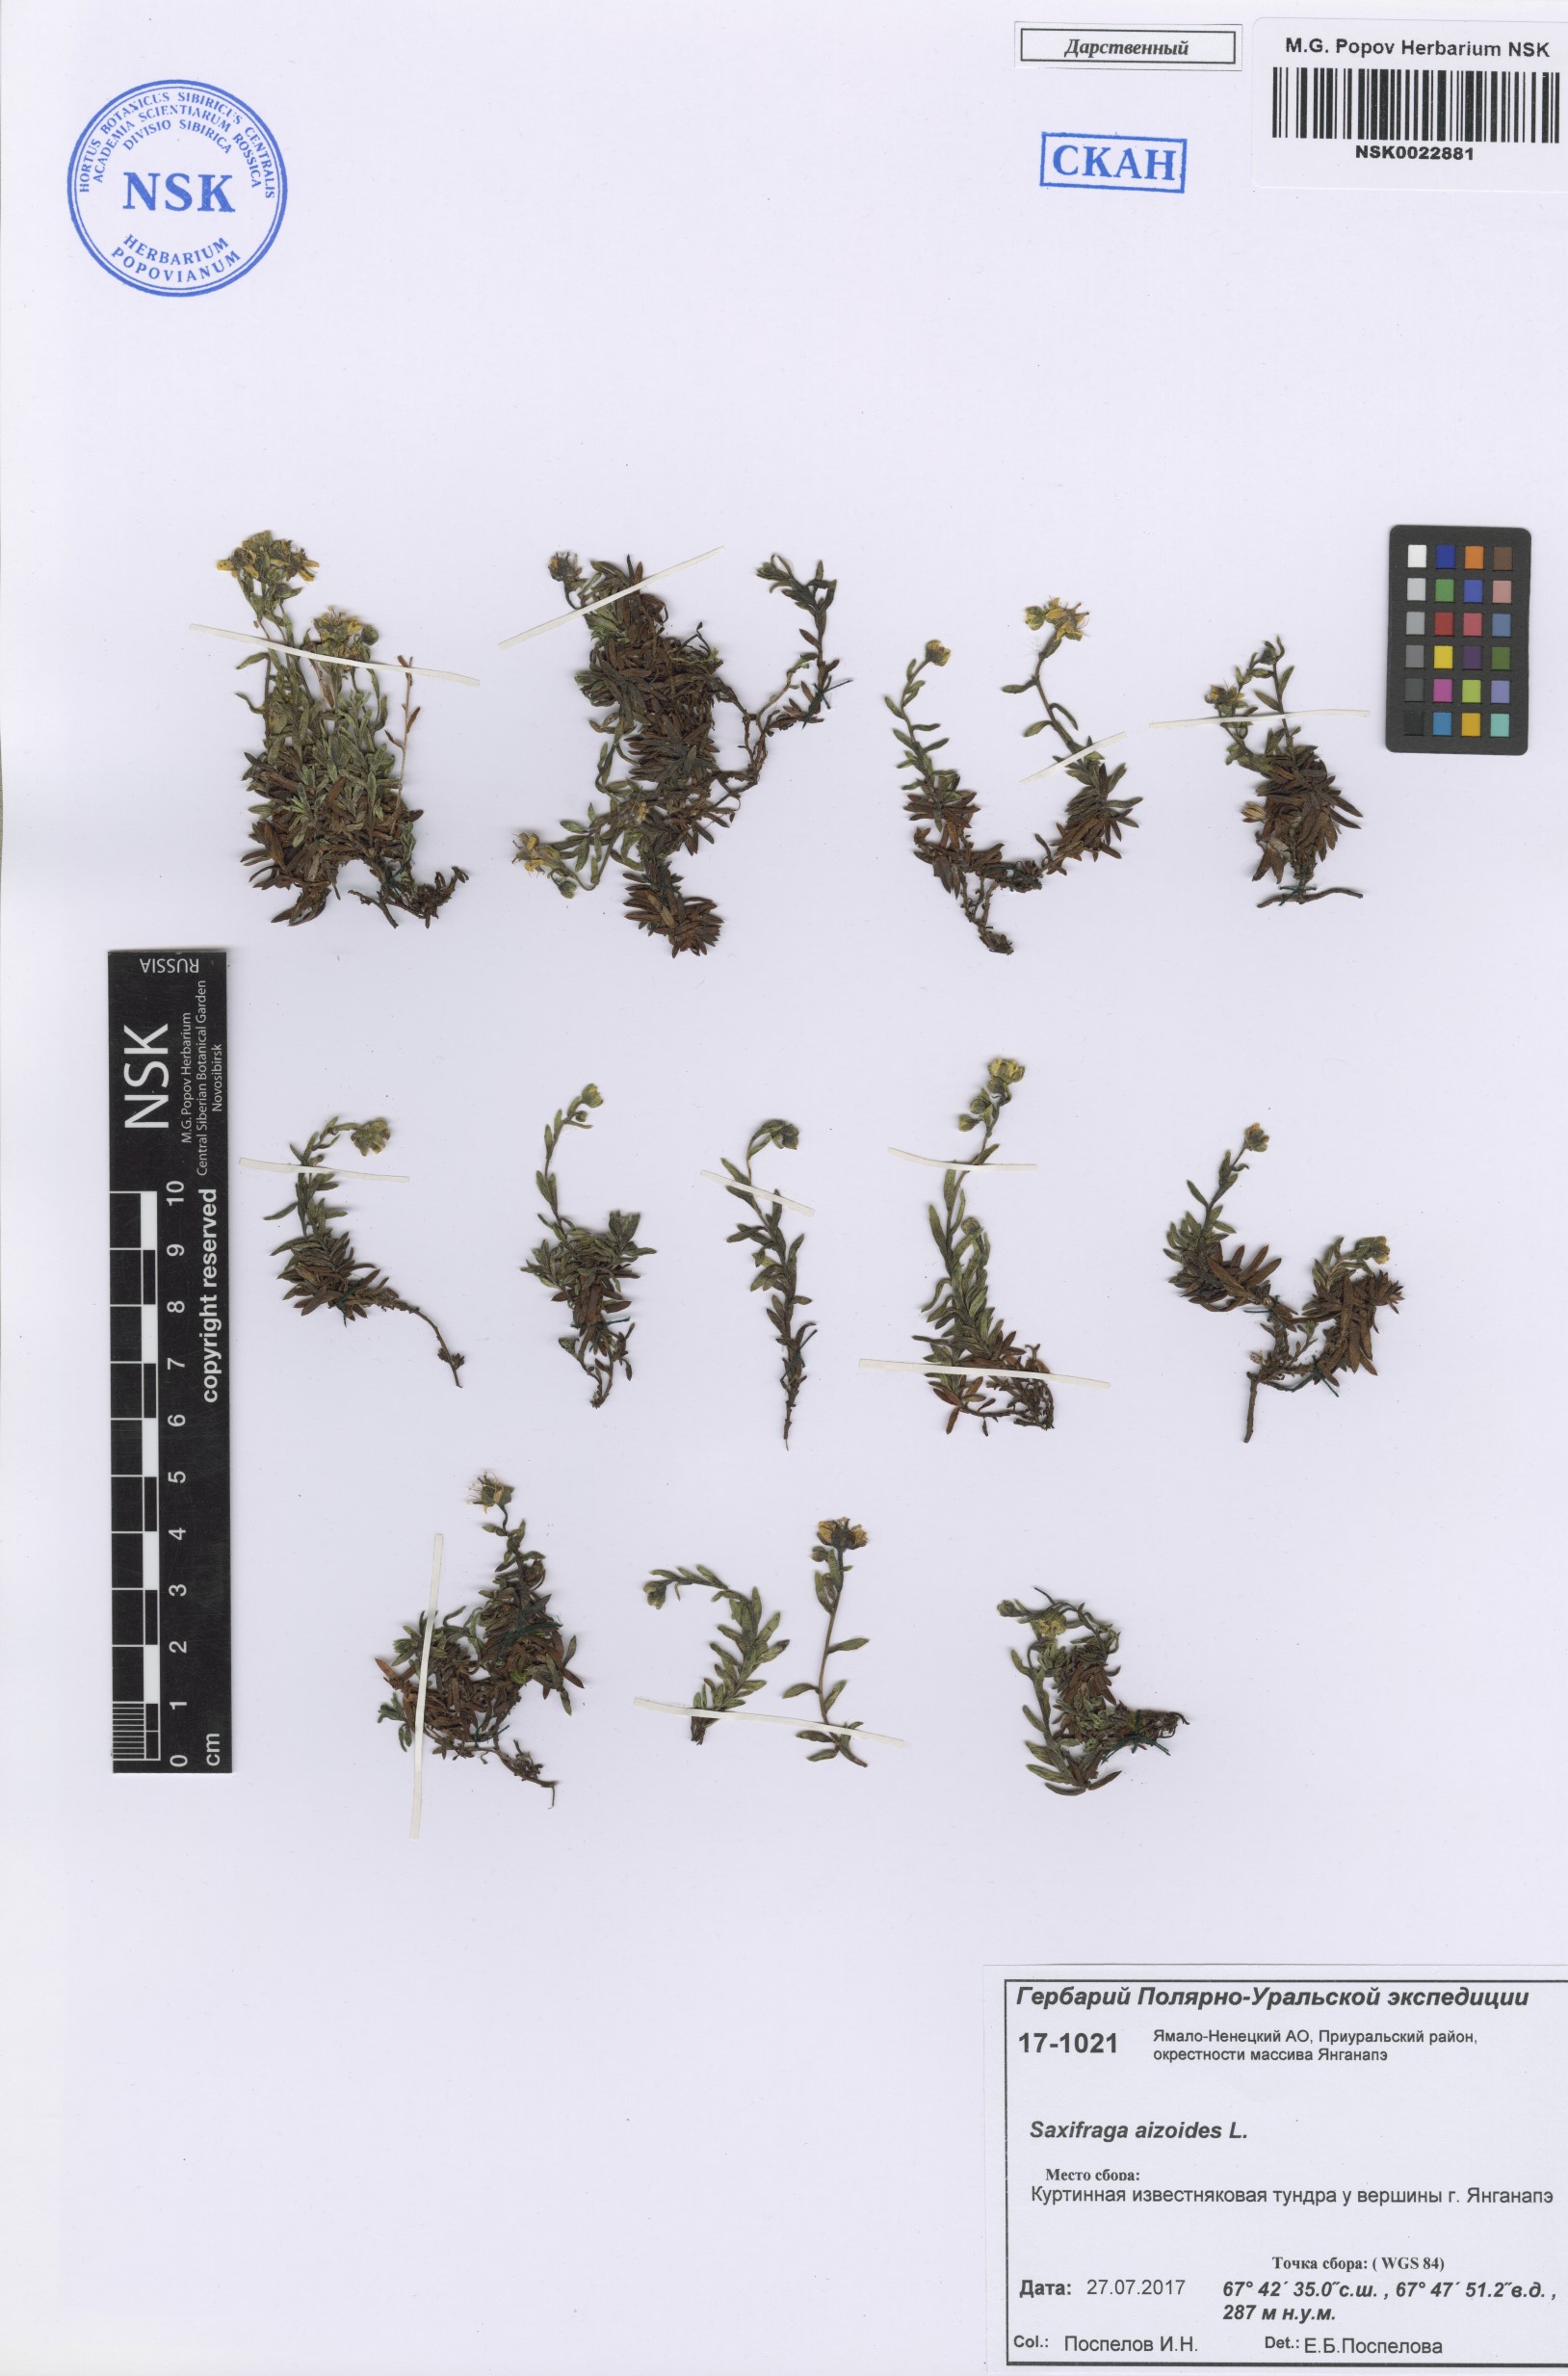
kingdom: Plantae
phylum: Tracheophyta
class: Magnoliopsida
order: Saxifragales
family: Saxifragaceae
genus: Saxifraga
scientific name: Saxifraga aizoides
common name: Yellow mountain saxifrage
